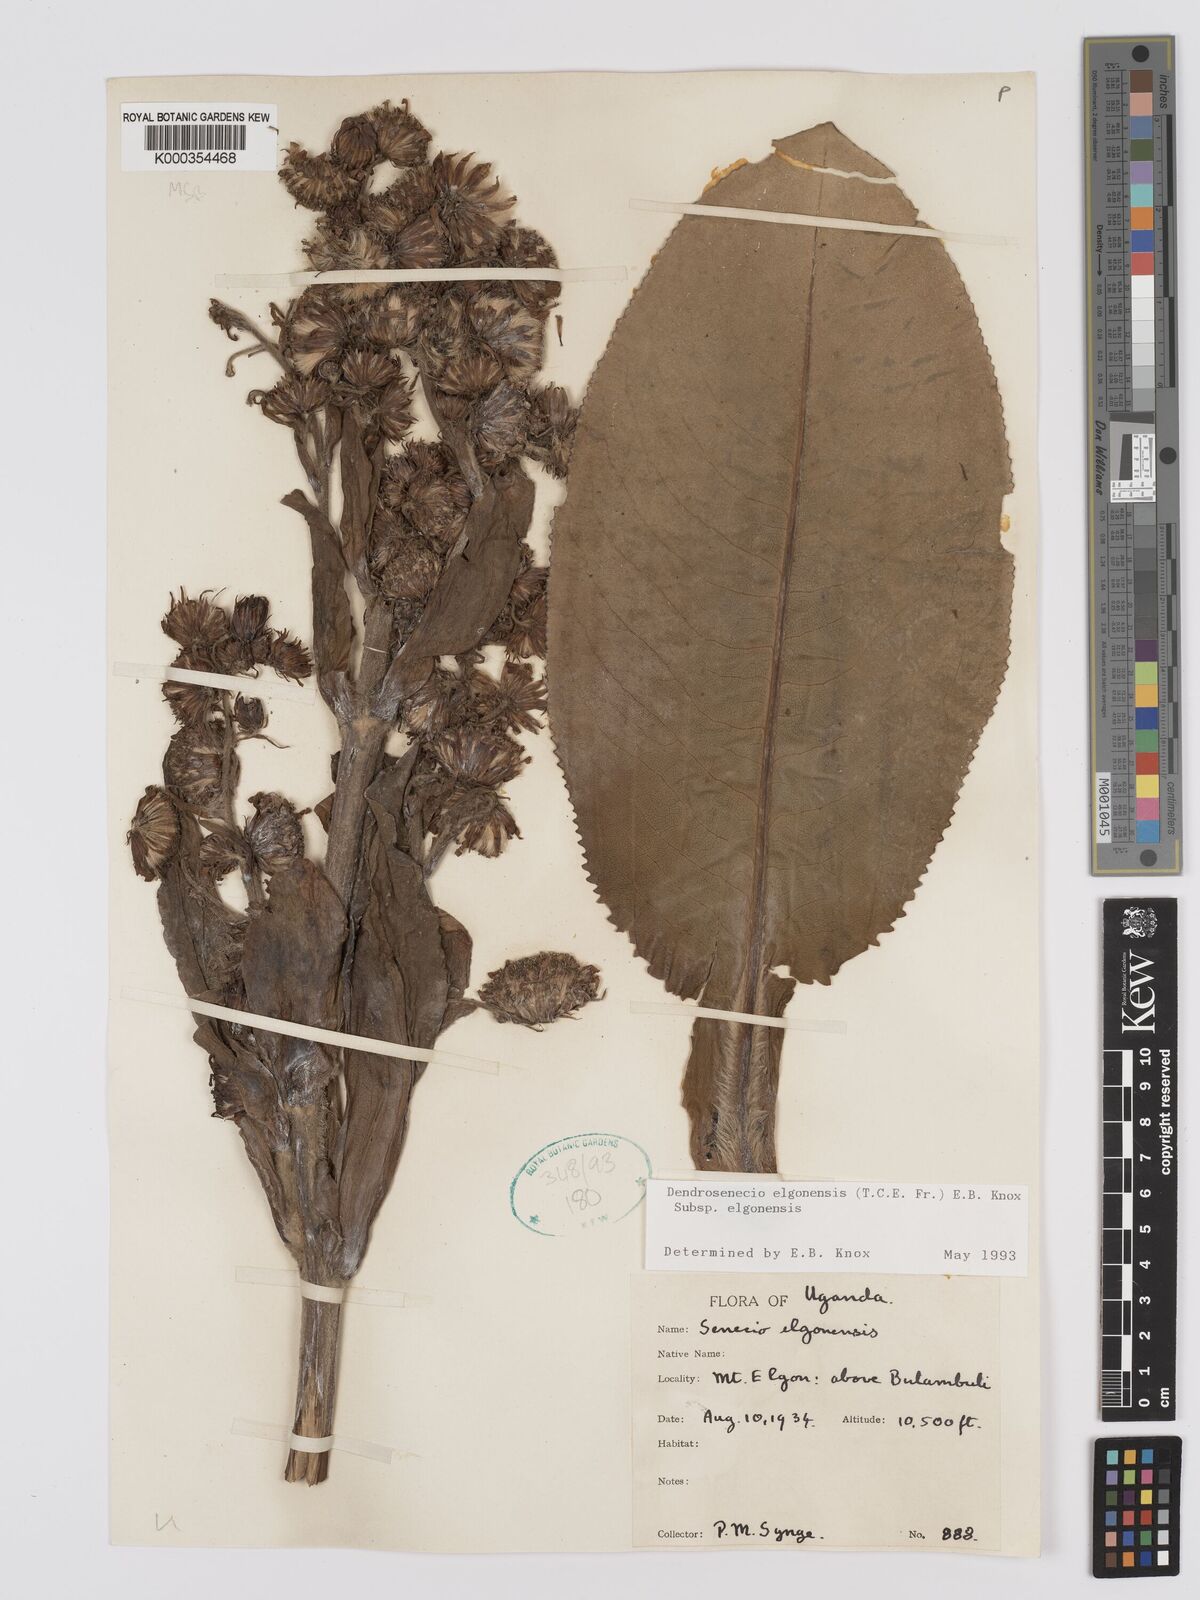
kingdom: Plantae
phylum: Tracheophyta
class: Magnoliopsida
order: Asterales
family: Asteraceae
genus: Dendrosenecio
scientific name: Dendrosenecio elgonensis
